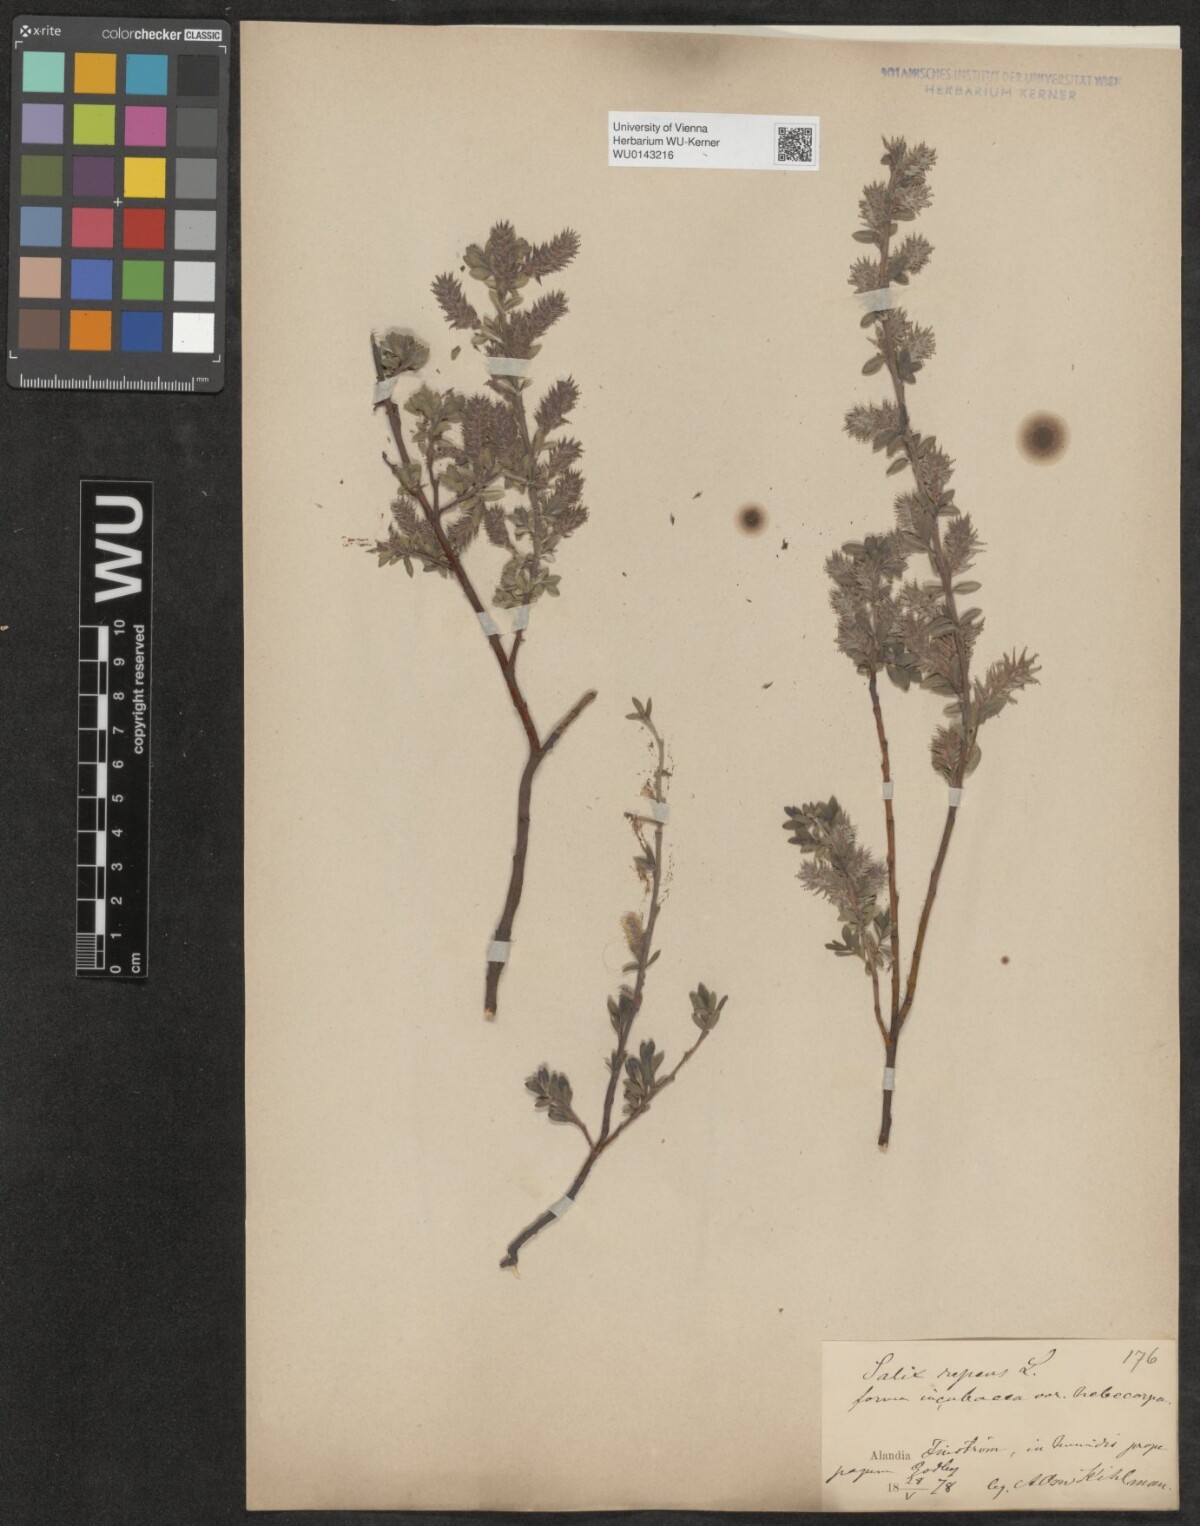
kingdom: Plantae
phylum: Tracheophyta
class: Magnoliopsida
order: Malpighiales
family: Salicaceae
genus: Salix
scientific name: Salix repens
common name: Creeping willow
